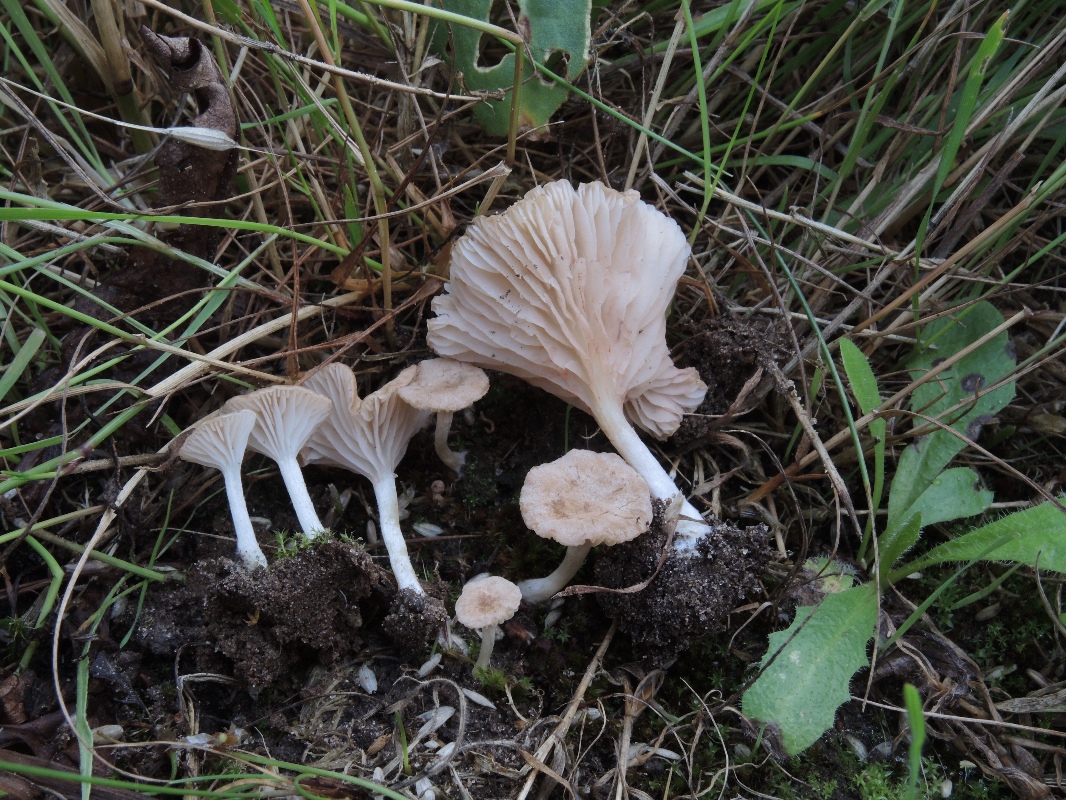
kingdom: Fungi
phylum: Basidiomycota
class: Agaricomycetes
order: Agaricales
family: Entolomataceae
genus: Entoloma
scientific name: Entoloma neglectum
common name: bleg rødblad
